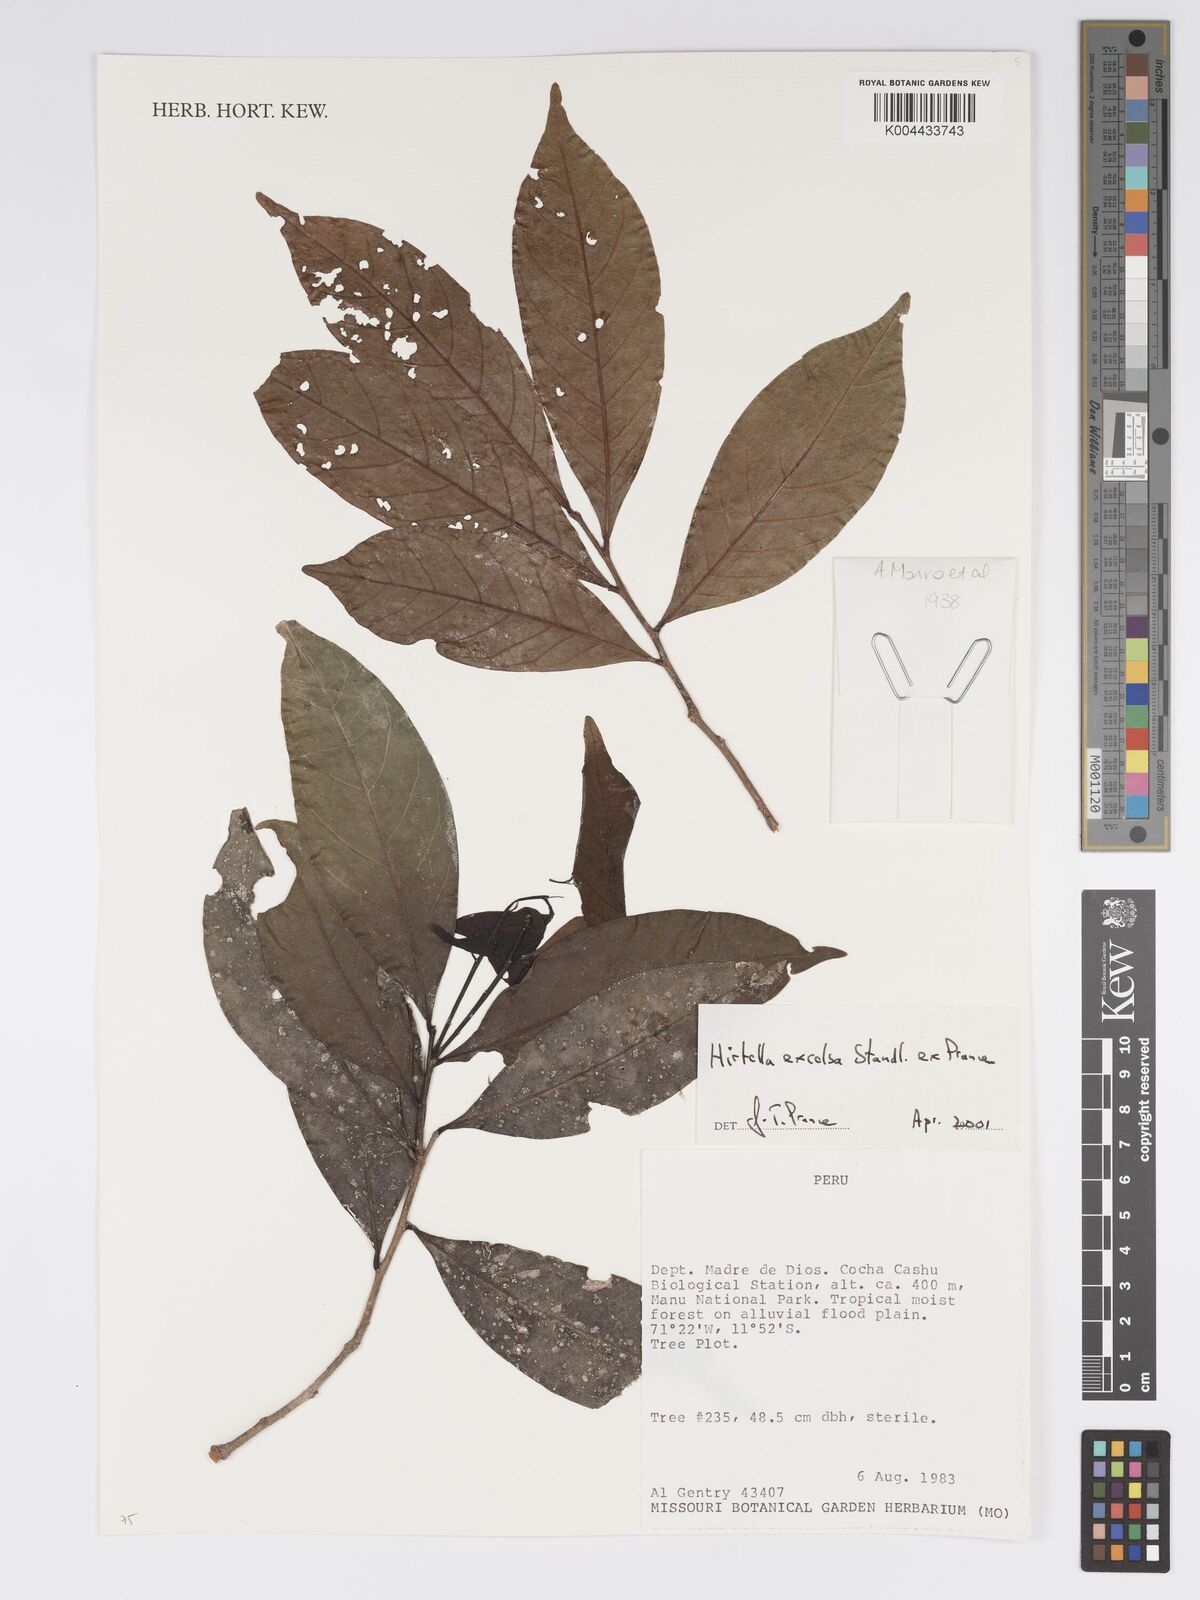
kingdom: Plantae
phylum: Tracheophyta
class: Magnoliopsida
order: Malpighiales
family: Chrysobalanaceae
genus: Hirtella
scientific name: Hirtella excelsa
